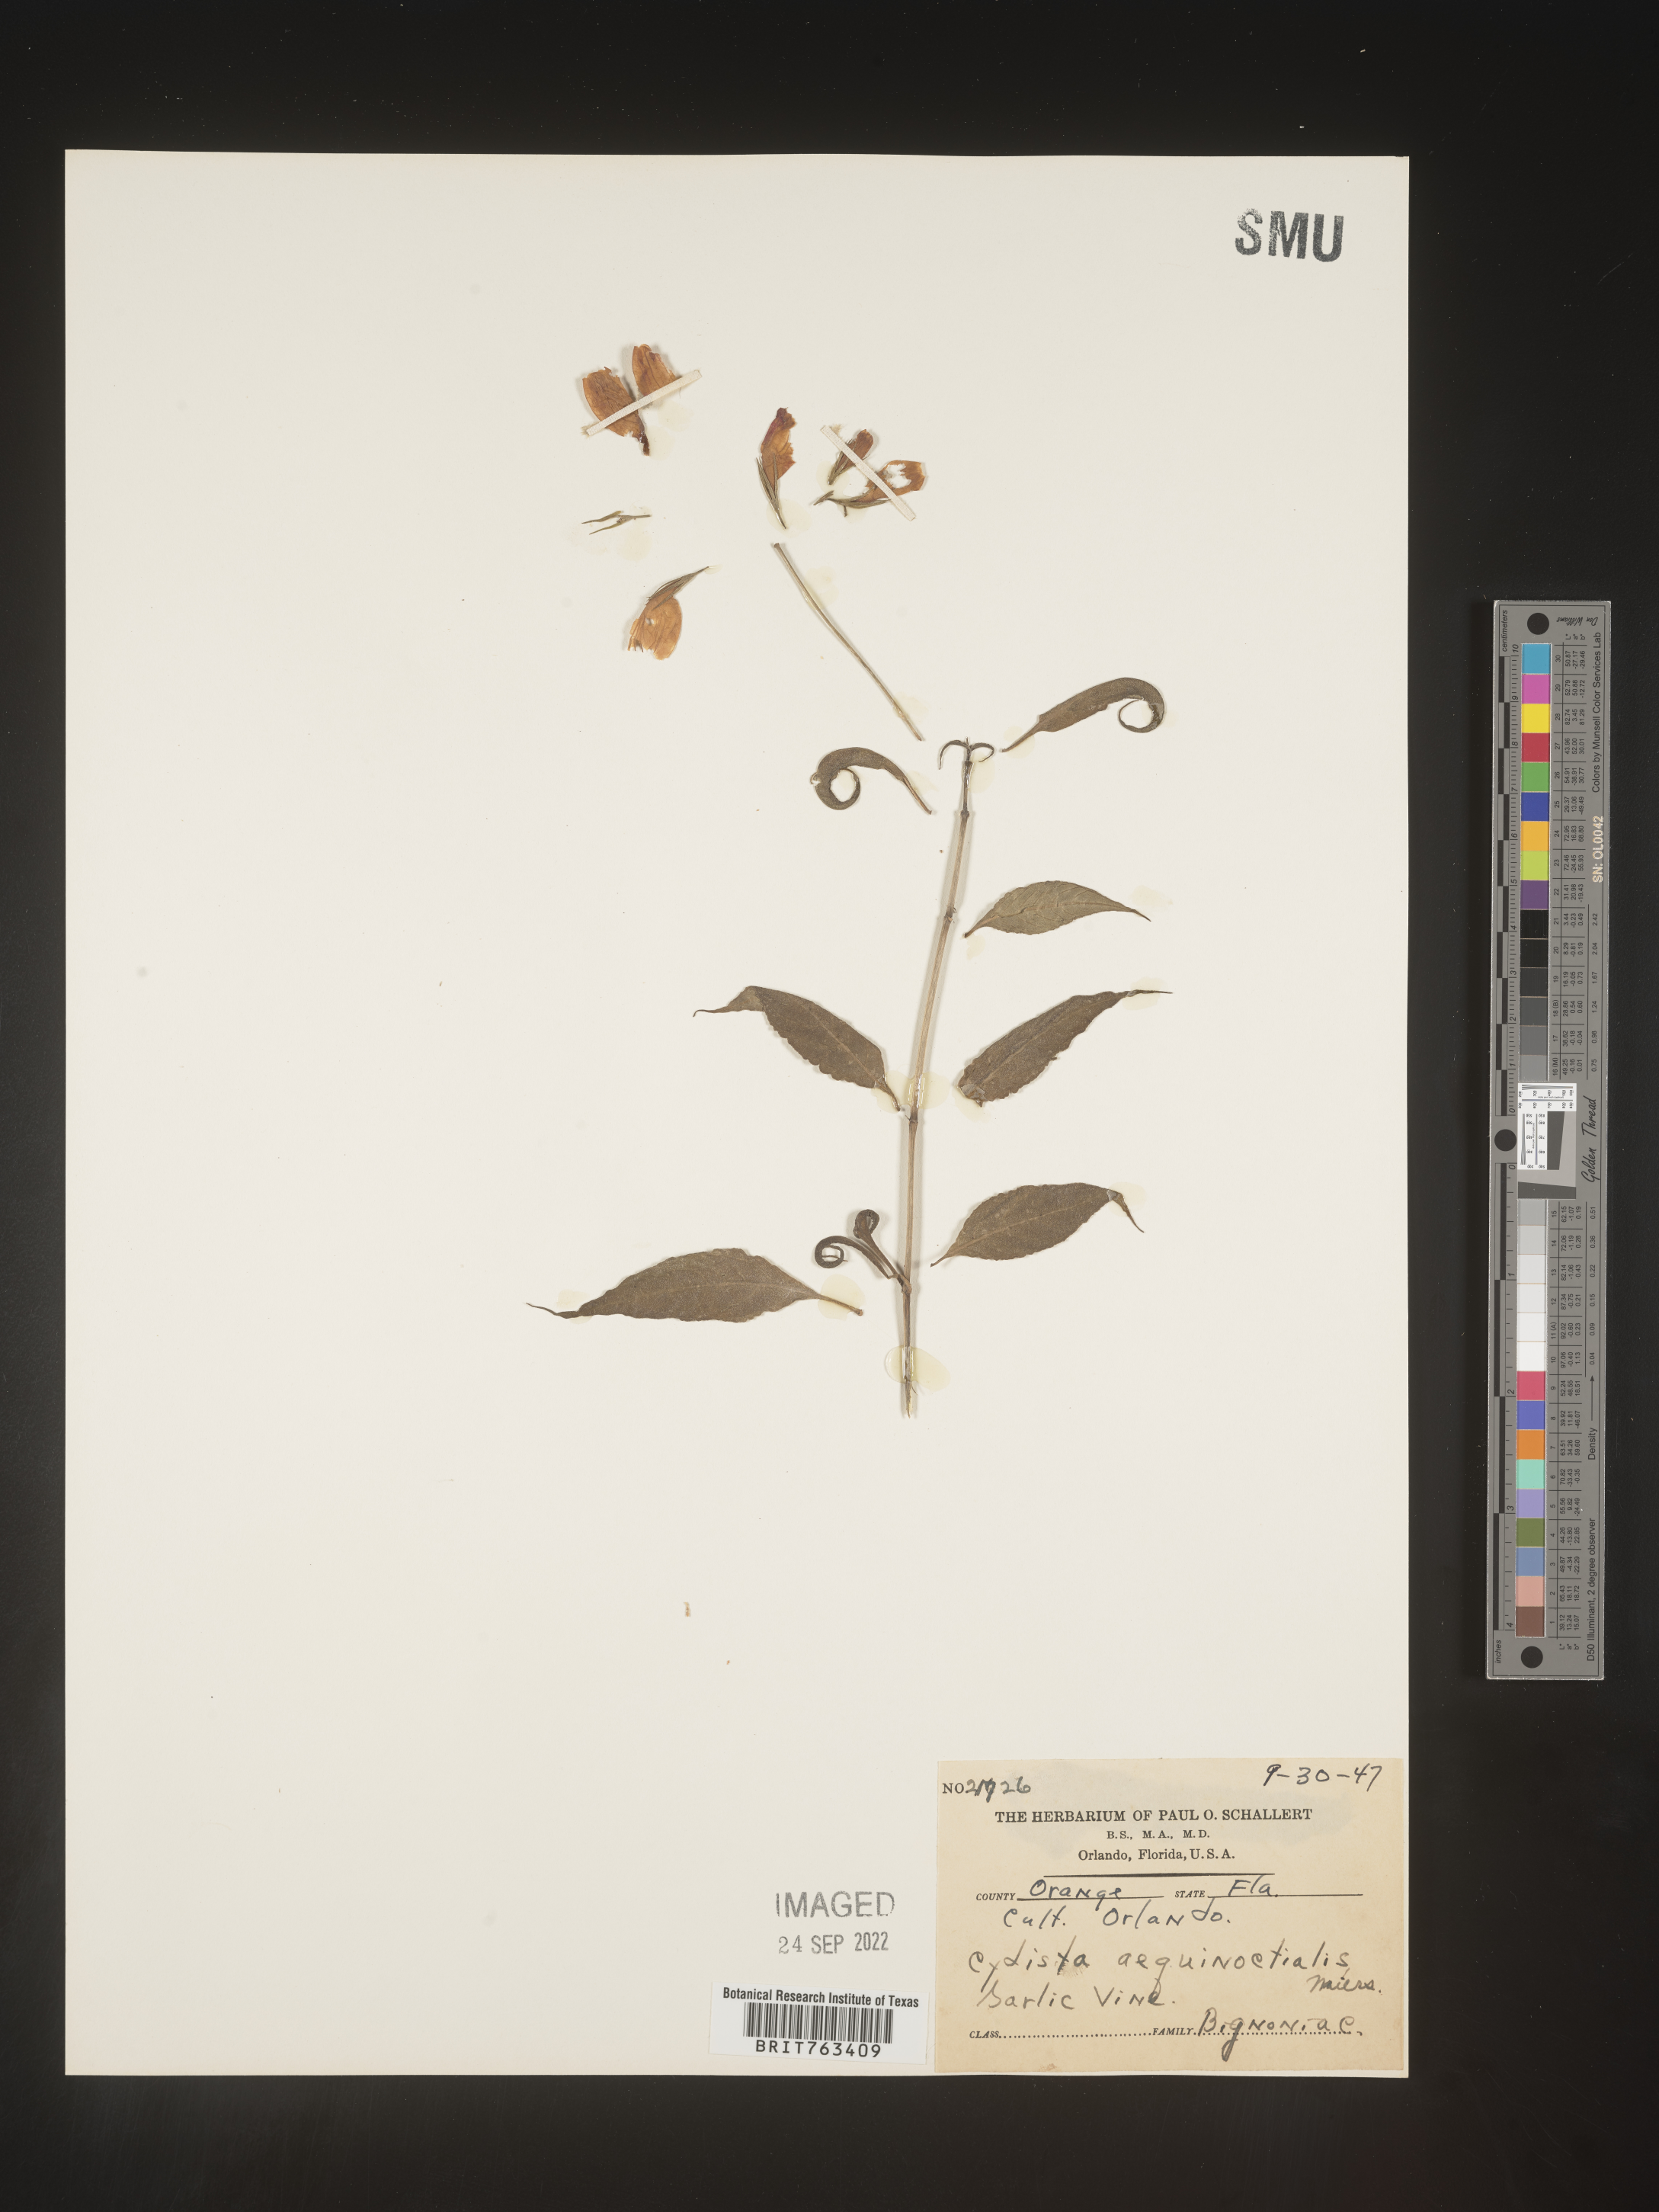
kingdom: Plantae
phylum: Tracheophyta
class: Magnoliopsida
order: Lamiales
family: Bignoniaceae
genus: Bignonia
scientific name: Bignonia
